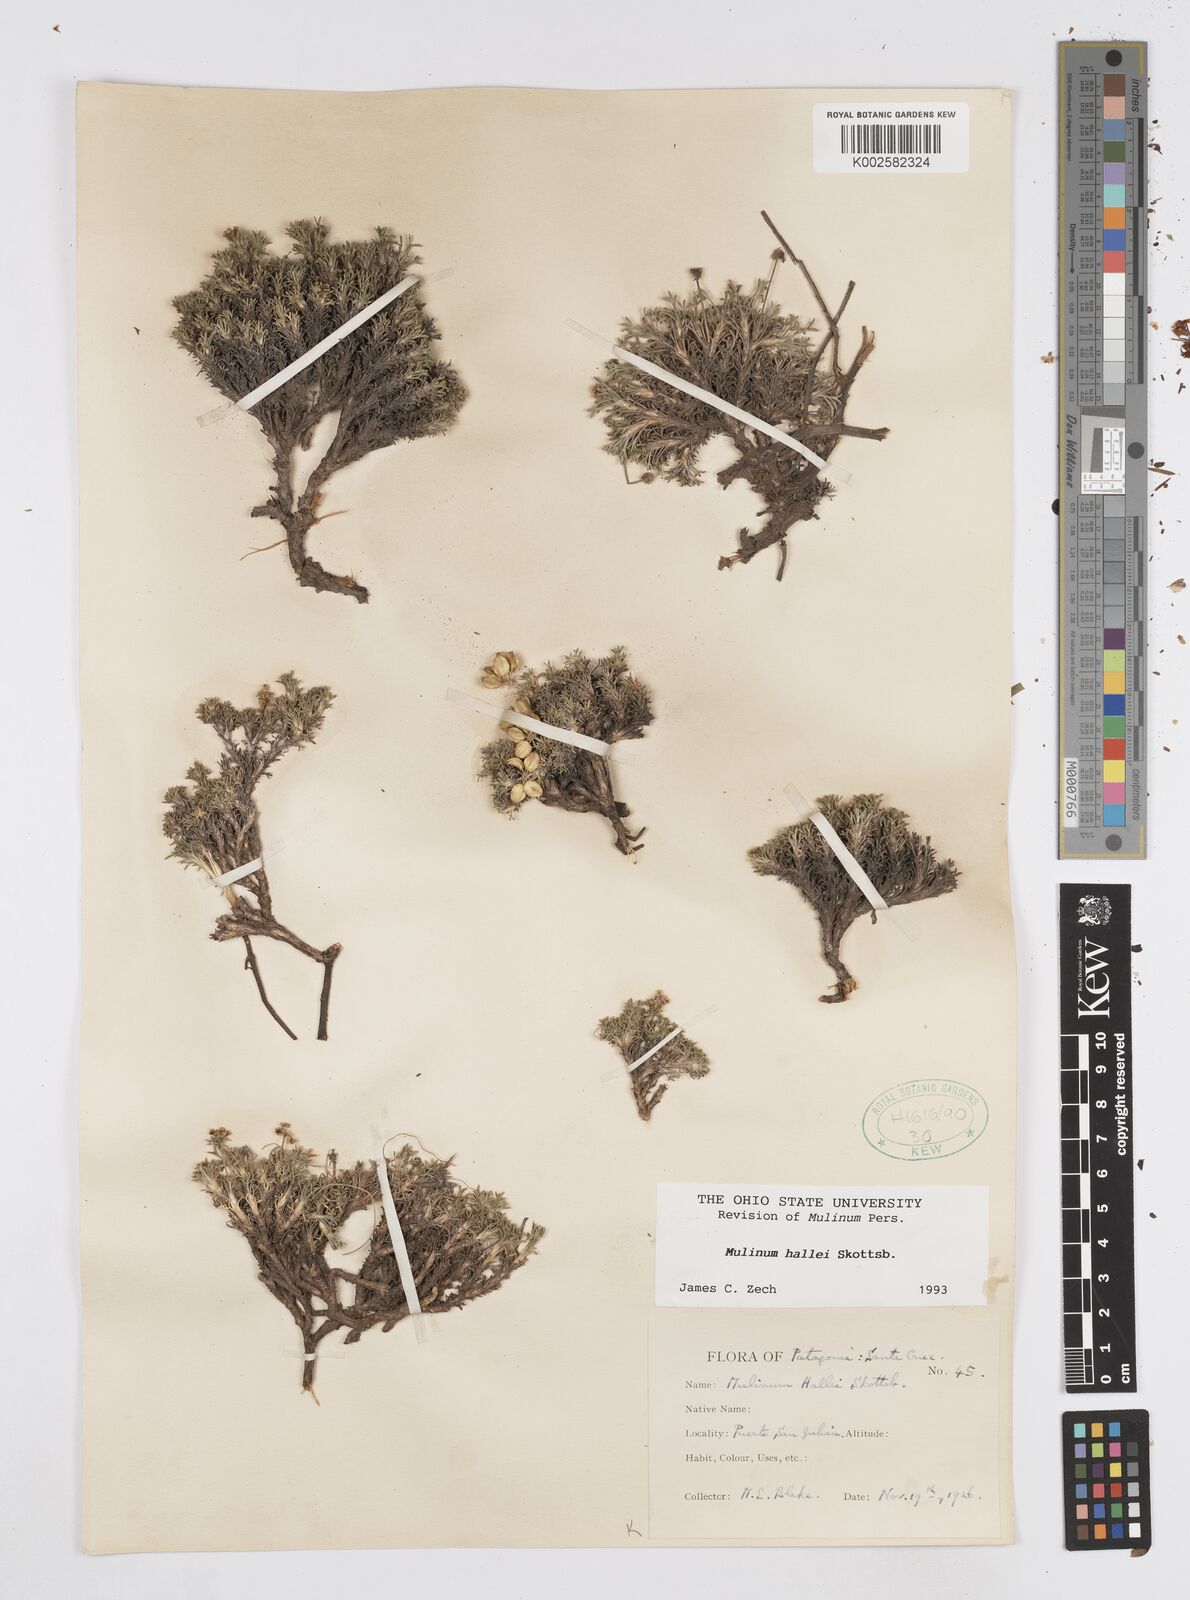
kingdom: Plantae
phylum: Tracheophyta
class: Magnoliopsida
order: Apiales
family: Apiaceae
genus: Azorella
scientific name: Azorella hallei
